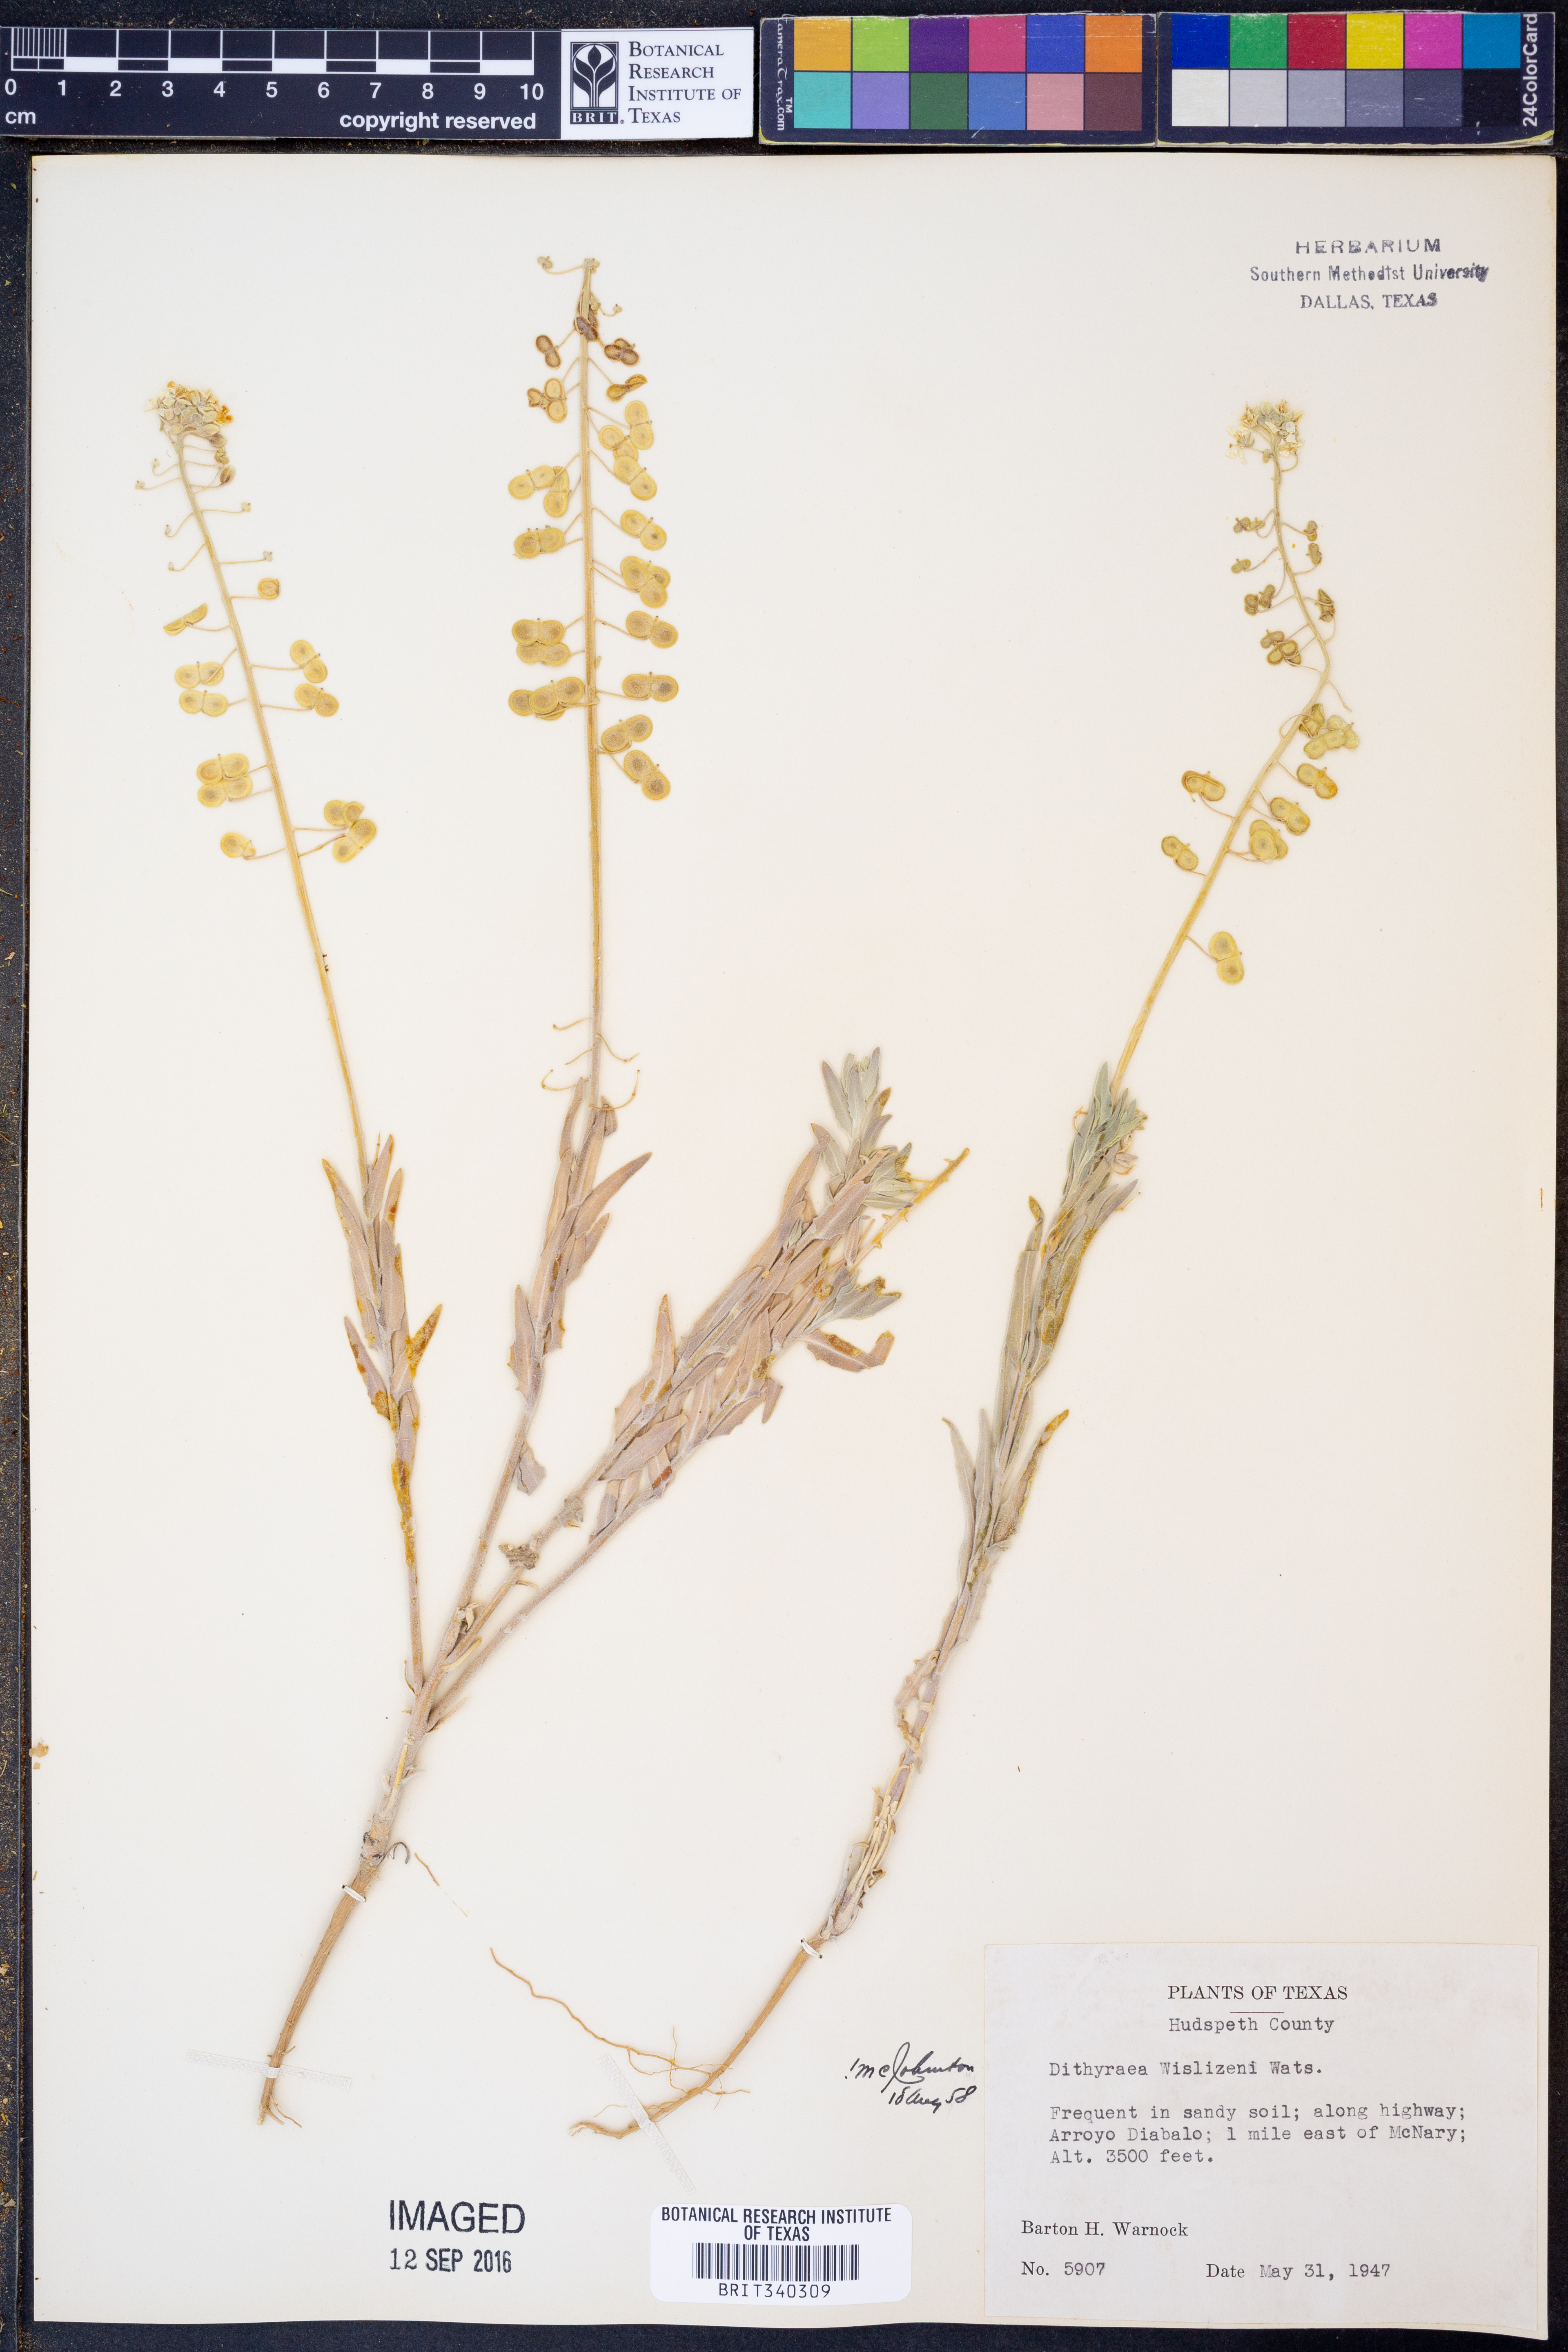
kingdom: Plantae
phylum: Tracheophyta
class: Magnoliopsida
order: Brassicales
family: Brassicaceae
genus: Dimorphocarpa
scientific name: Dimorphocarpa wislizenii
